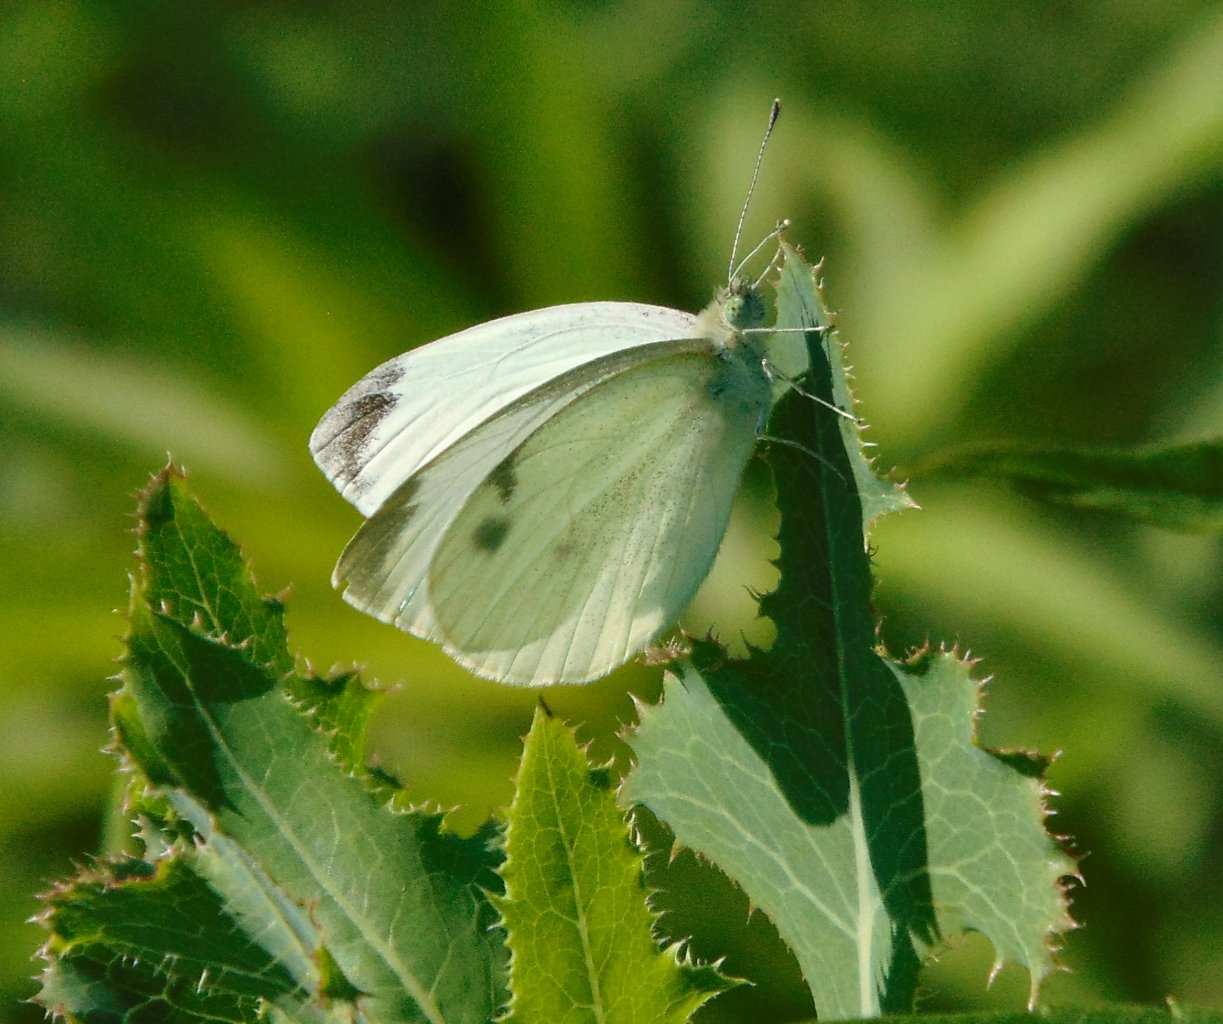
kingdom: Animalia
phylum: Arthropoda
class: Insecta
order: Lepidoptera
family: Pieridae
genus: Pieris
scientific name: Pieris rapae
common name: Cabbage White
